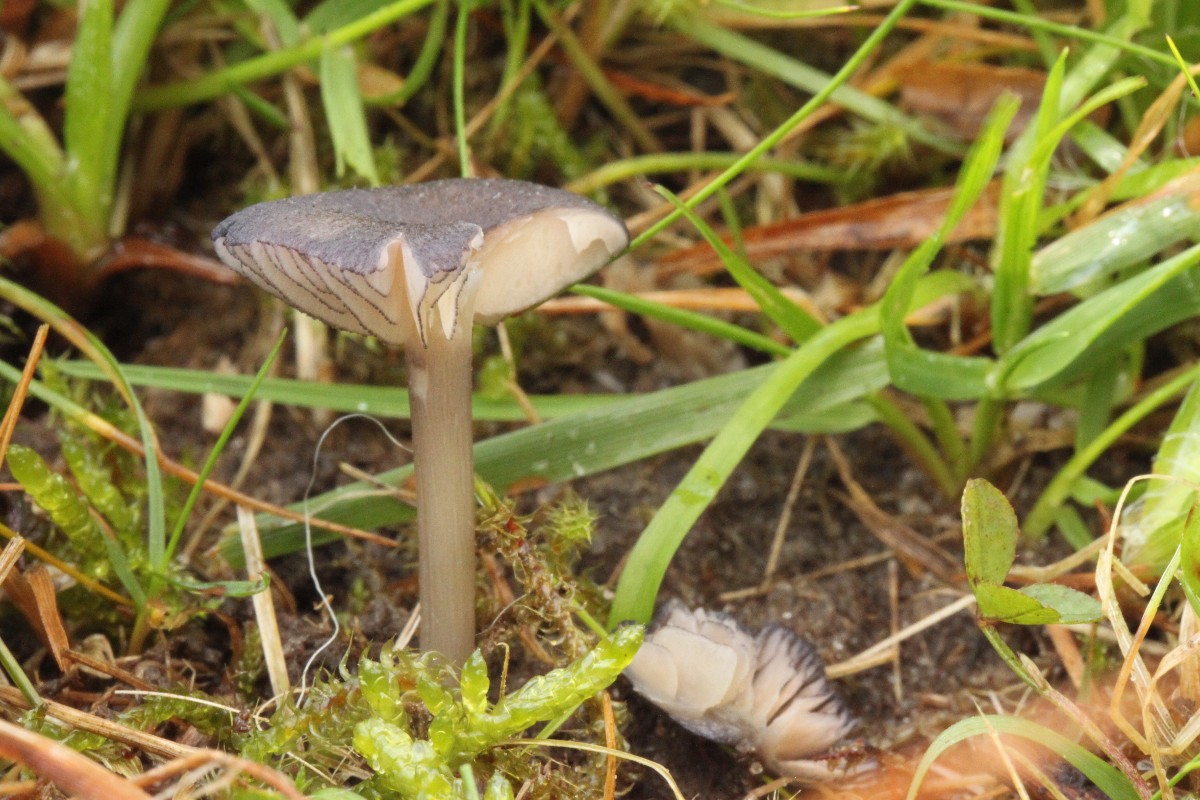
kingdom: Fungi
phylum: Basidiomycota
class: Agaricomycetes
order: Agaricales
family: Entolomataceae
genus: Entoloma
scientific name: Entoloma
